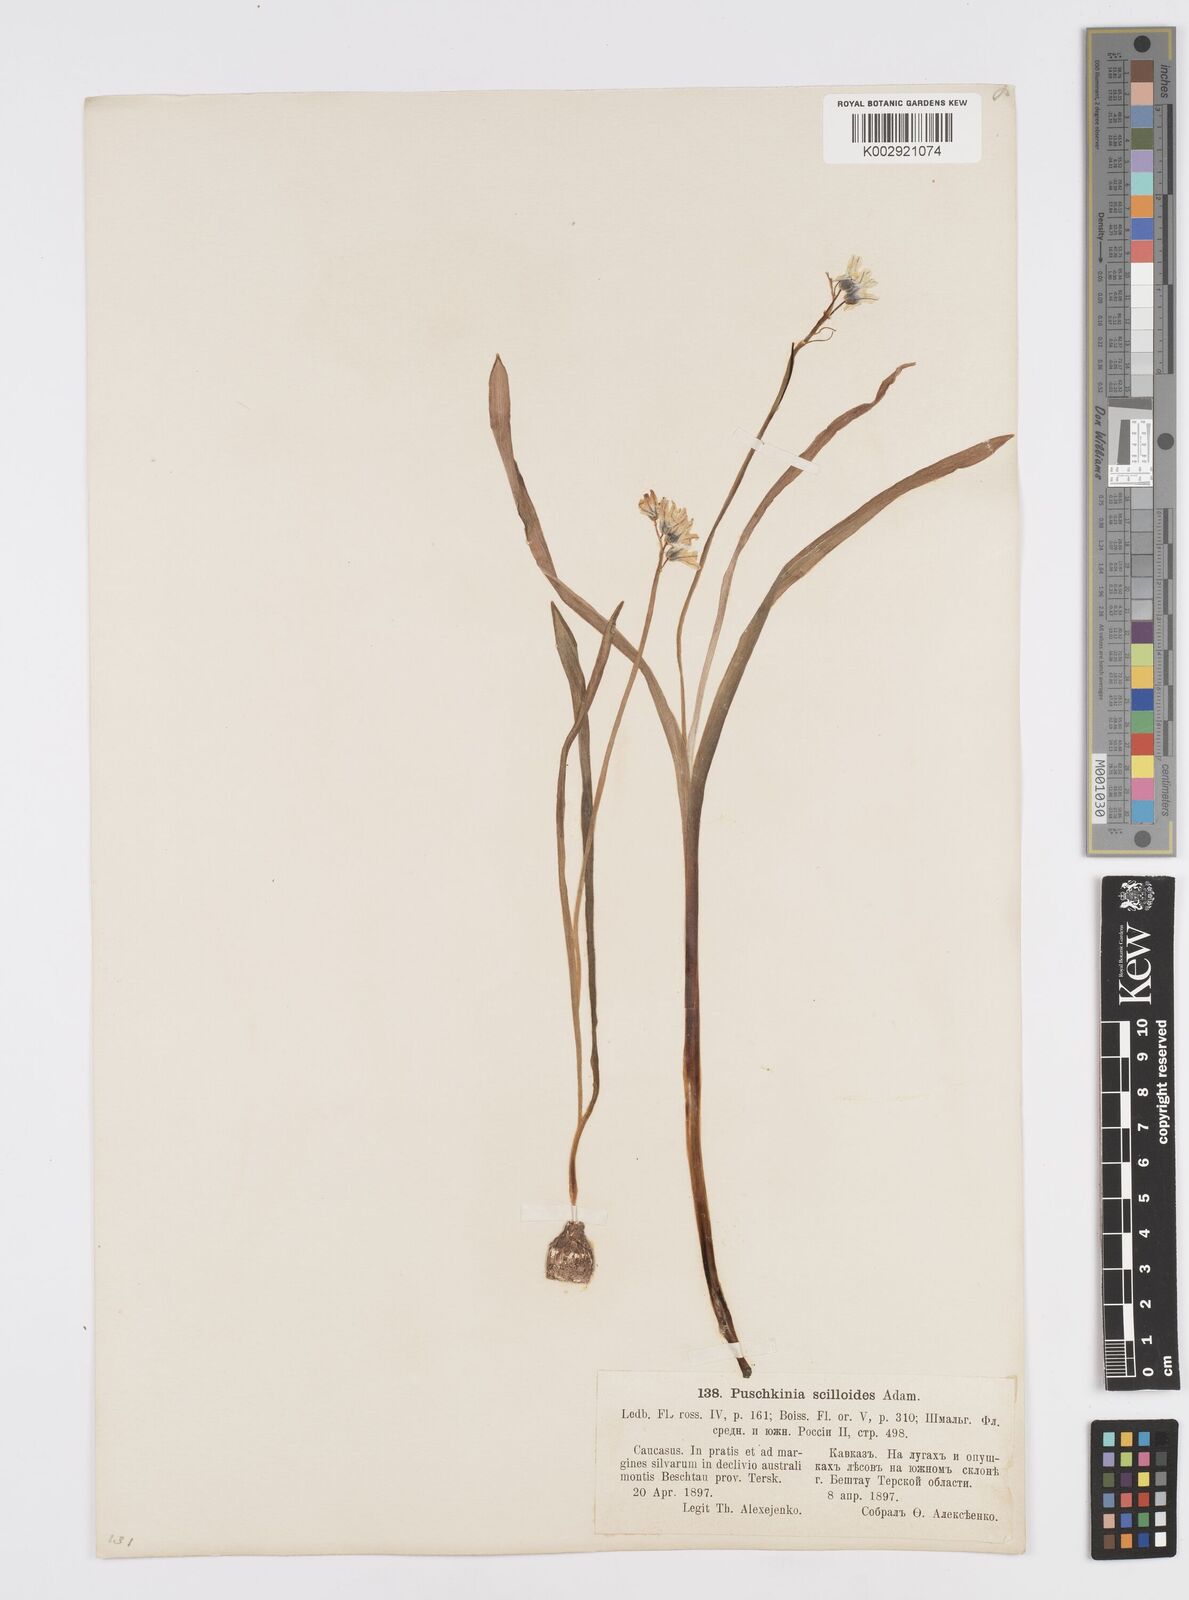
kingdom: Plantae
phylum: Tracheophyta
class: Liliopsida
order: Asparagales
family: Asparagaceae
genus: Puschkinia
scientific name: Puschkinia scilloides
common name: Striped squill
